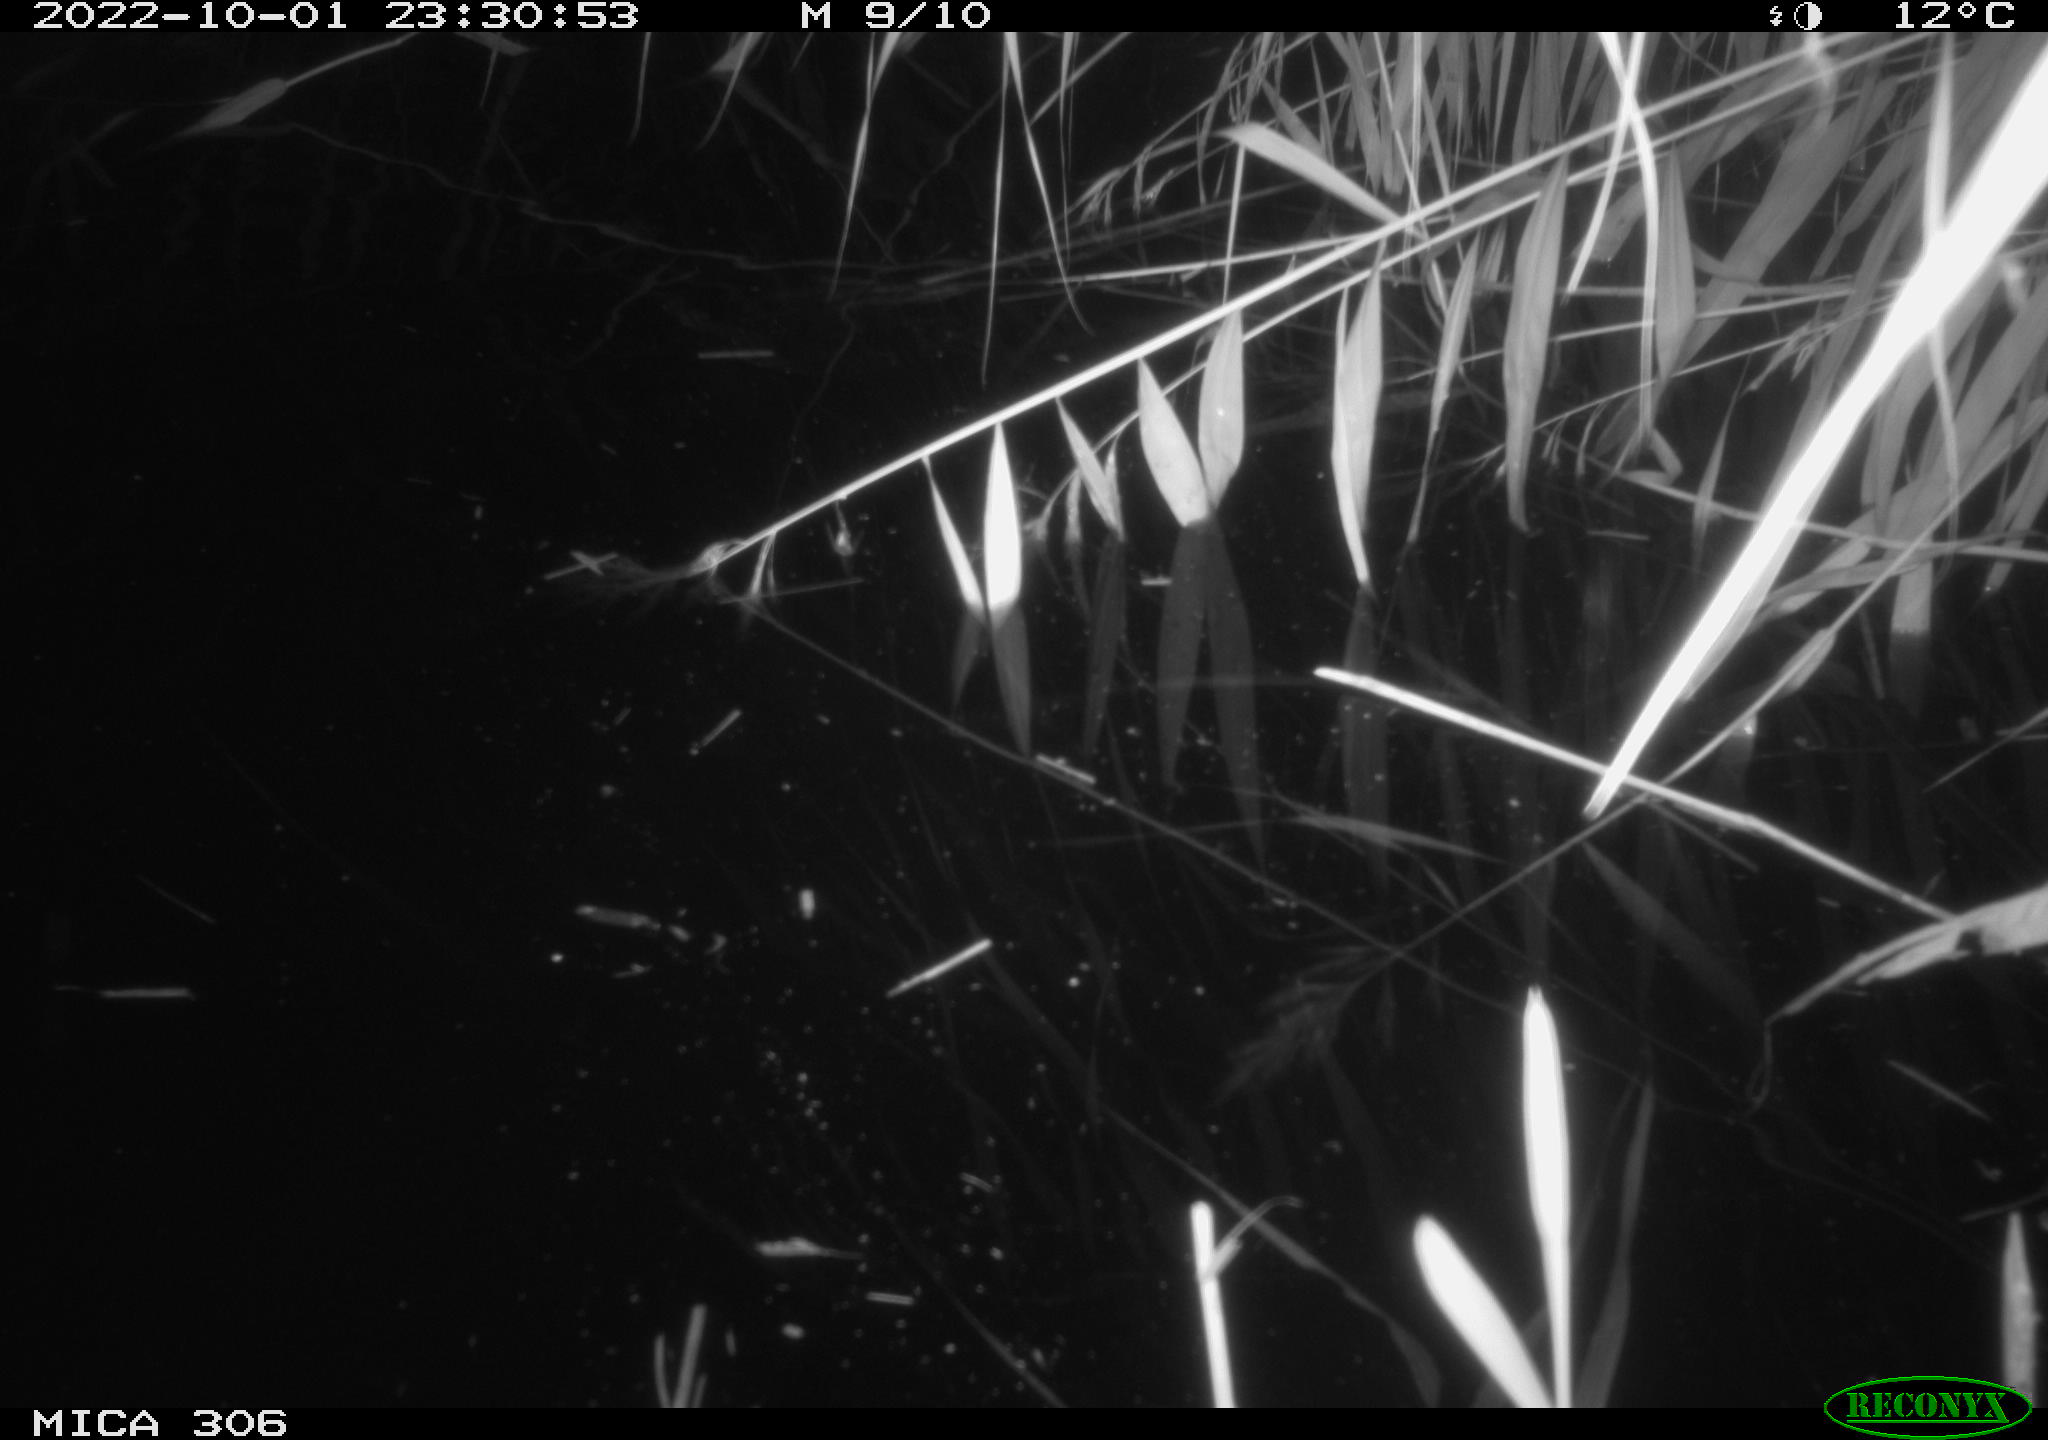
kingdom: Animalia
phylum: Chordata
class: Mammalia
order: Rodentia
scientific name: Rodentia
